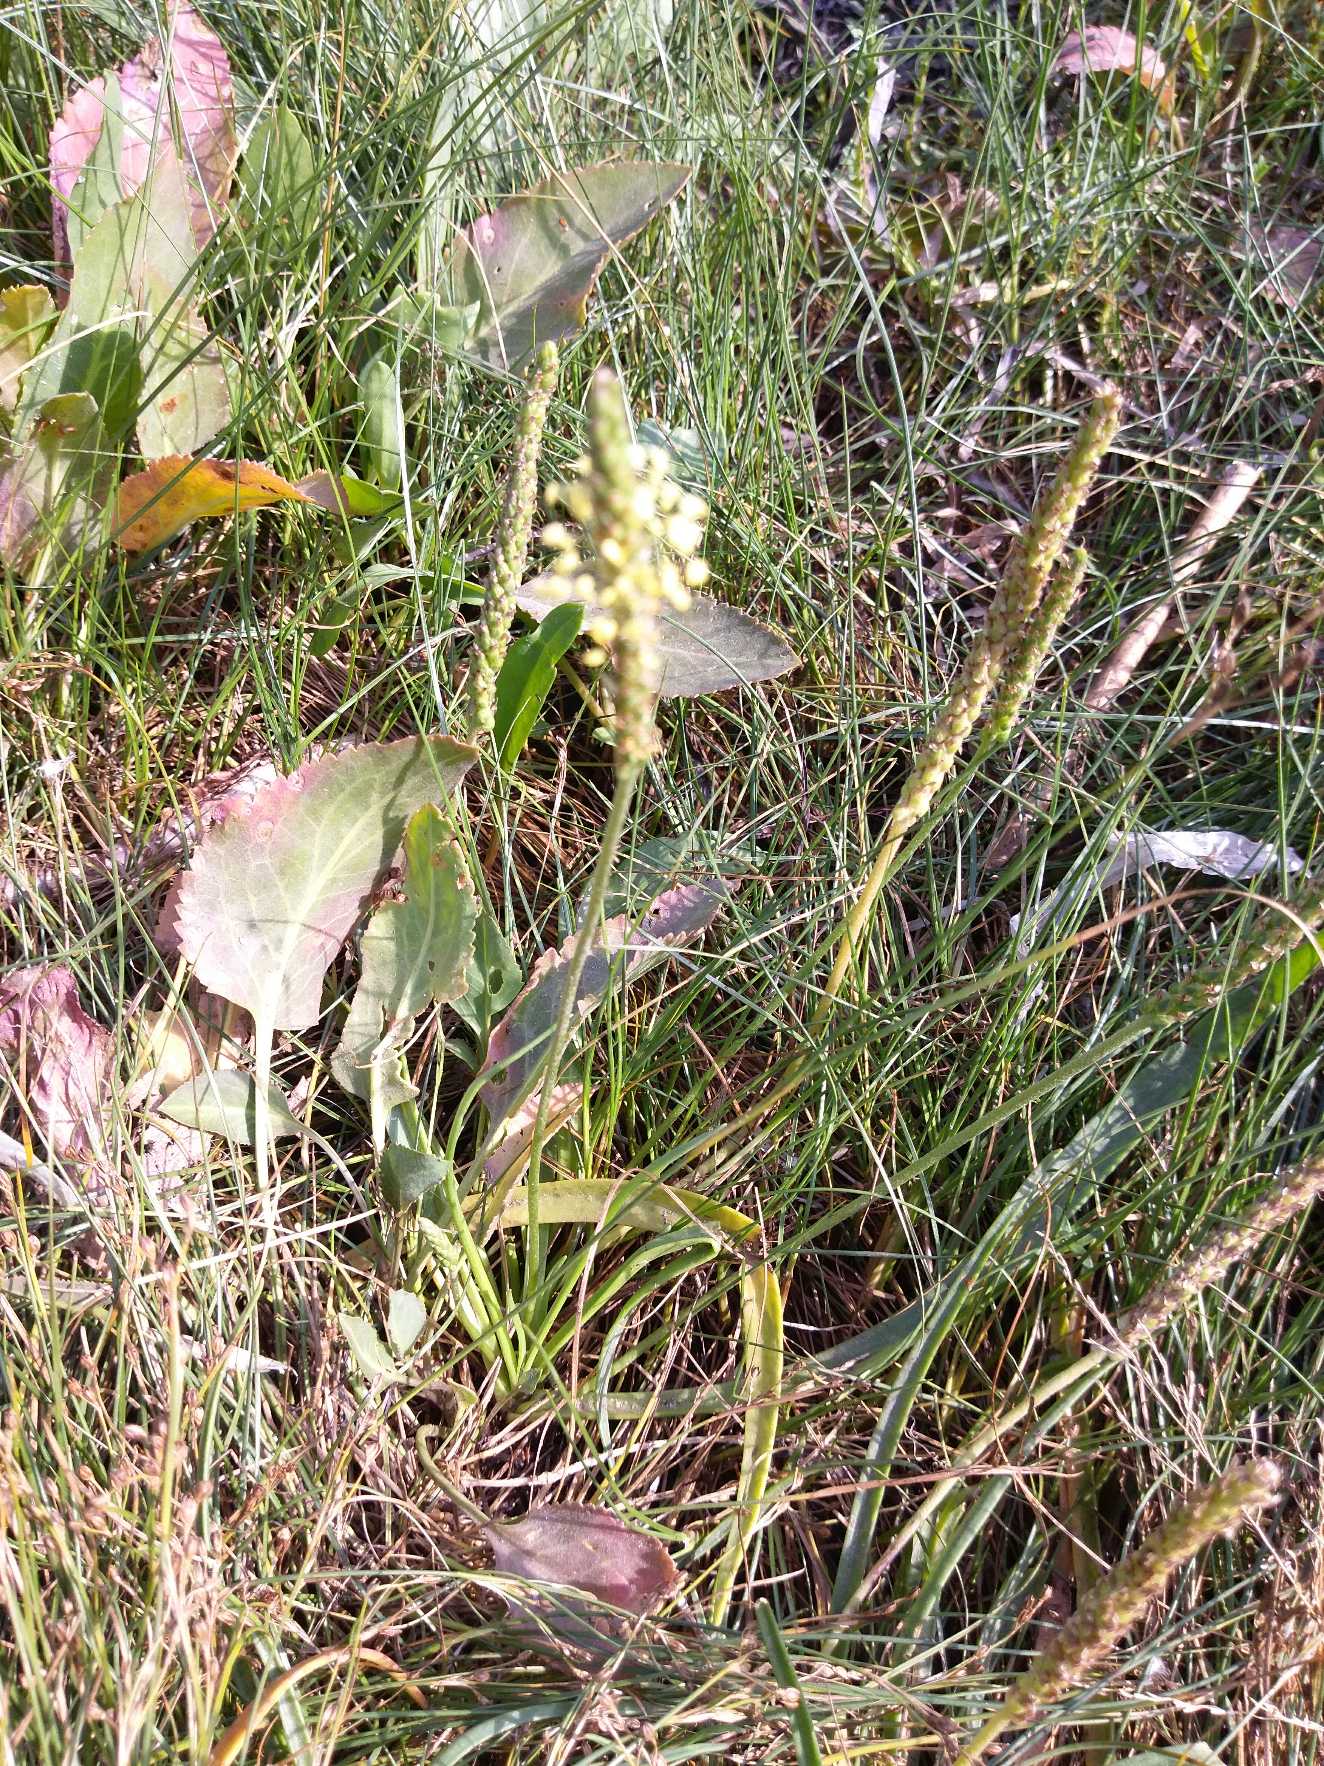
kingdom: Plantae
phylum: Tracheophyta
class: Magnoliopsida
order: Lamiales
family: Plantaginaceae
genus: Plantago
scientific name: Plantago maritima
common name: Strand-vejbred
